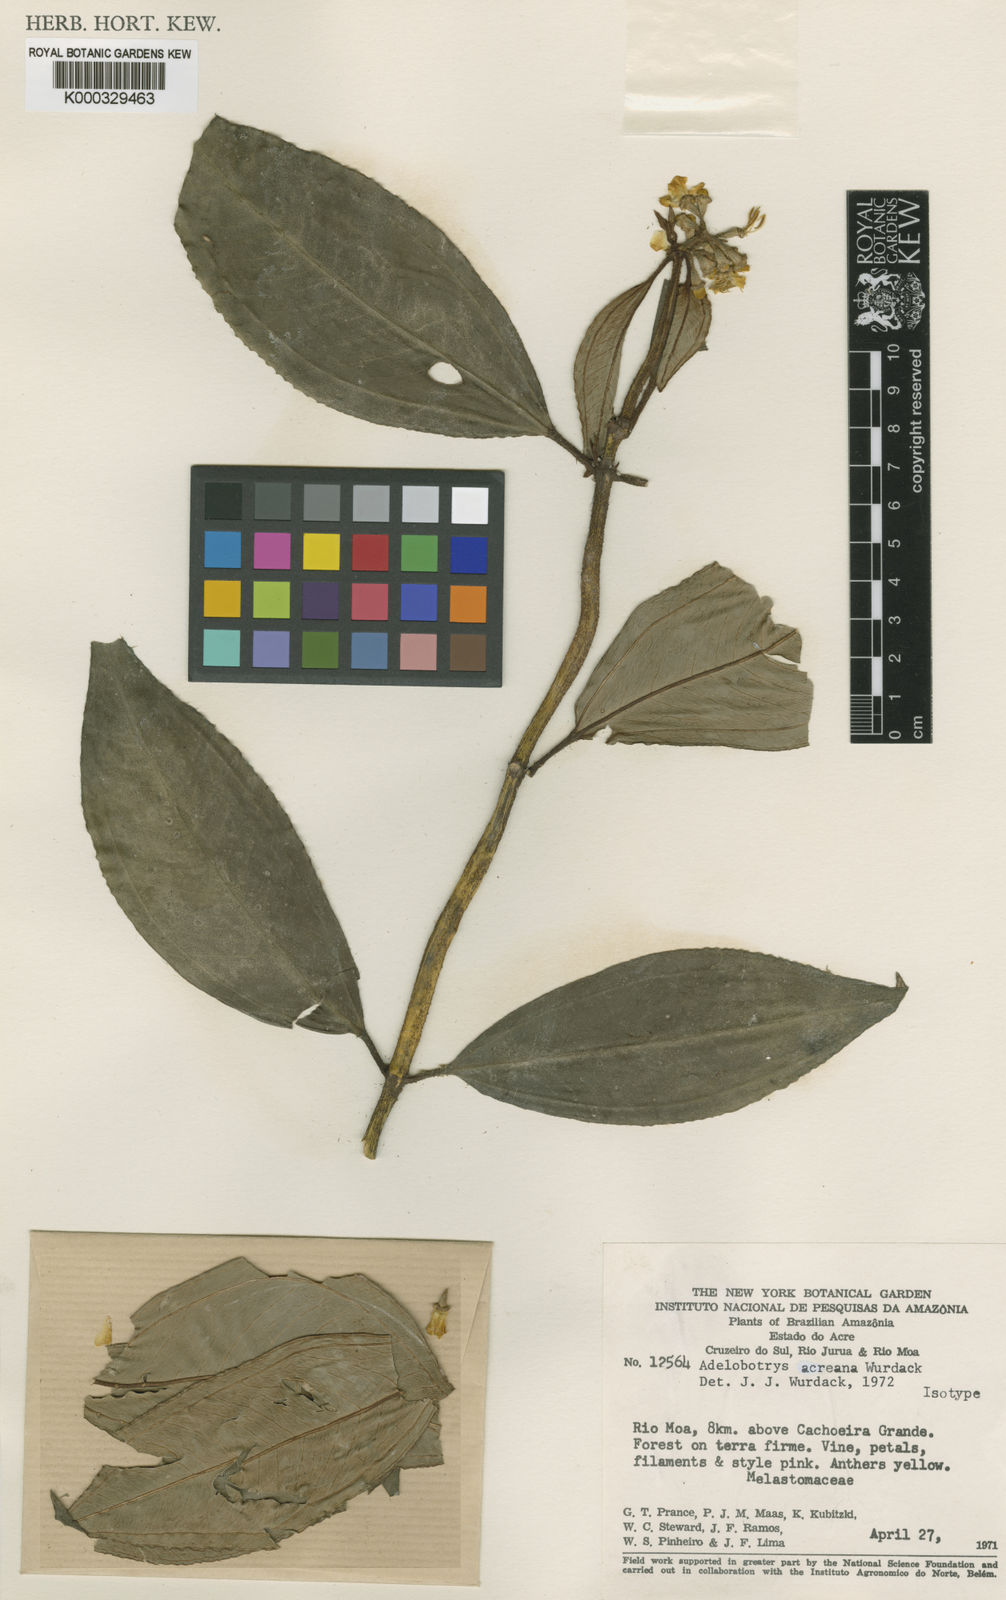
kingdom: Plantae
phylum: Tracheophyta
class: Magnoliopsida
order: Myrtales
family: Melastomataceae
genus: Adelobotrys
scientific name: Adelobotrys
